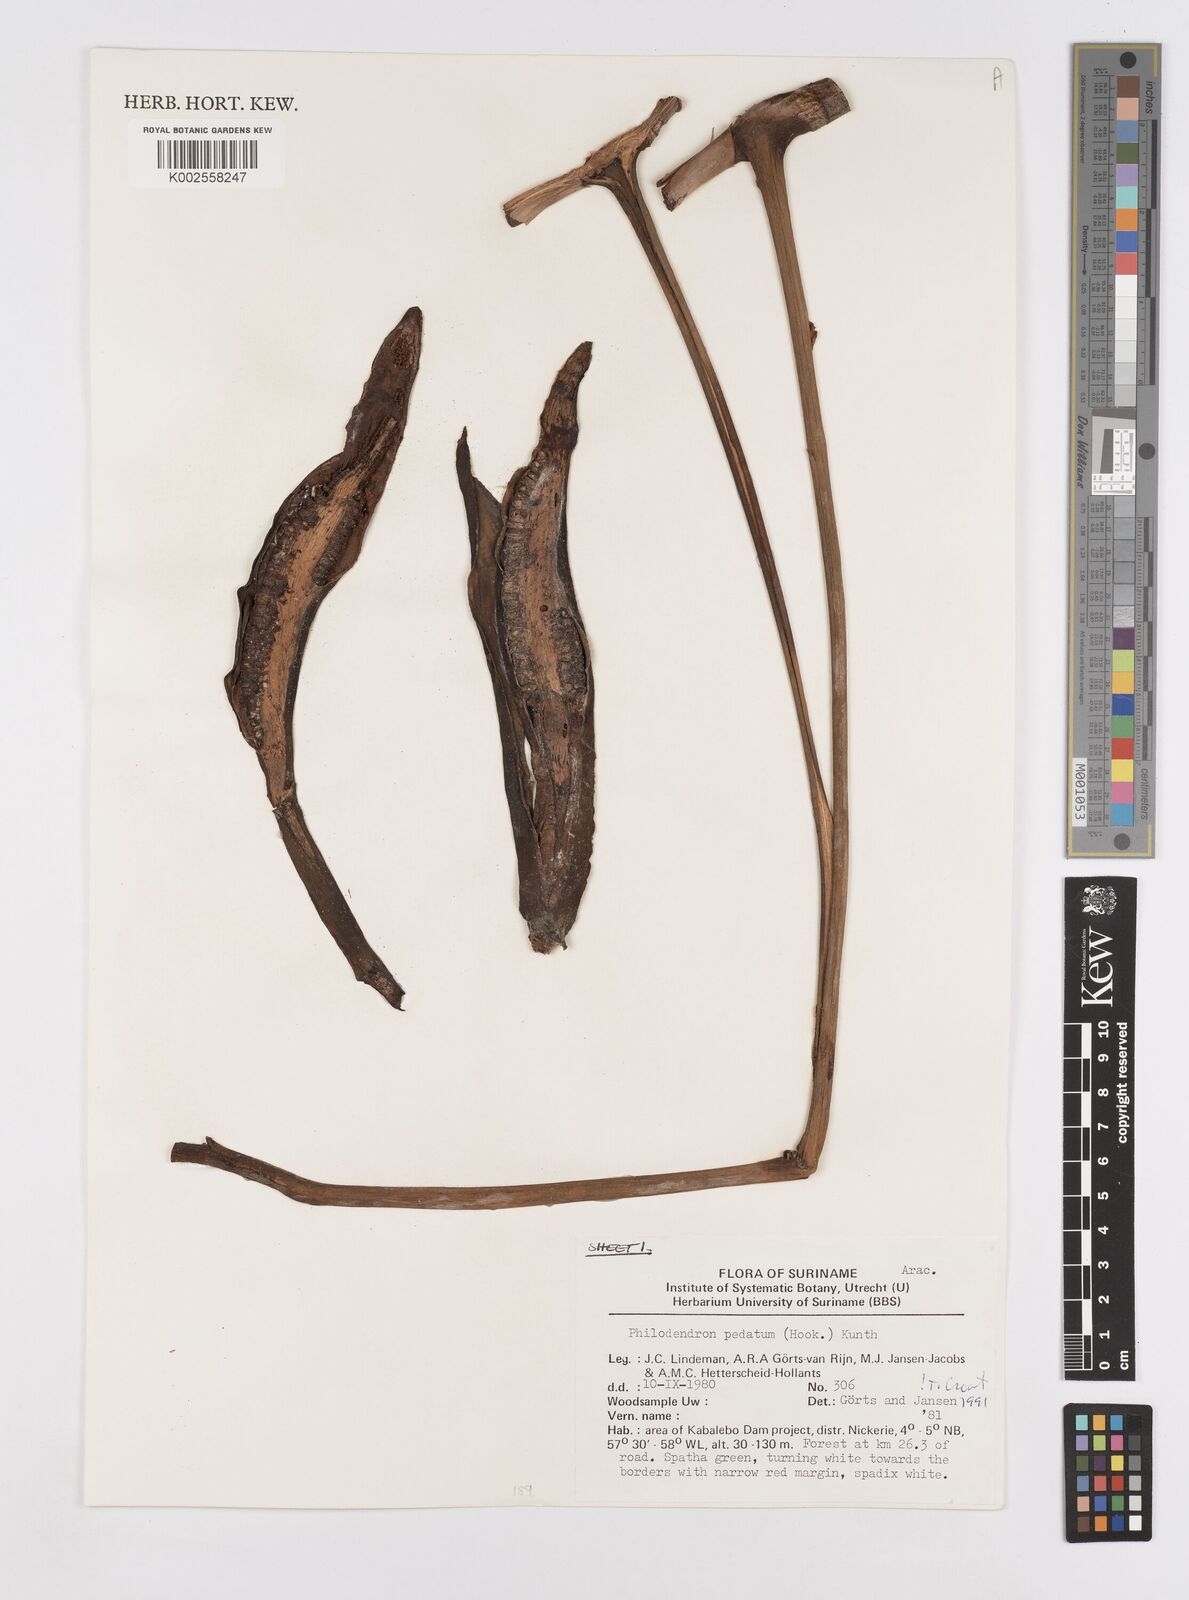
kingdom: Plantae
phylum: Tracheophyta
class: Liliopsida
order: Alismatales
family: Araceae
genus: Philodendron
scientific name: Philodendron pedatum
